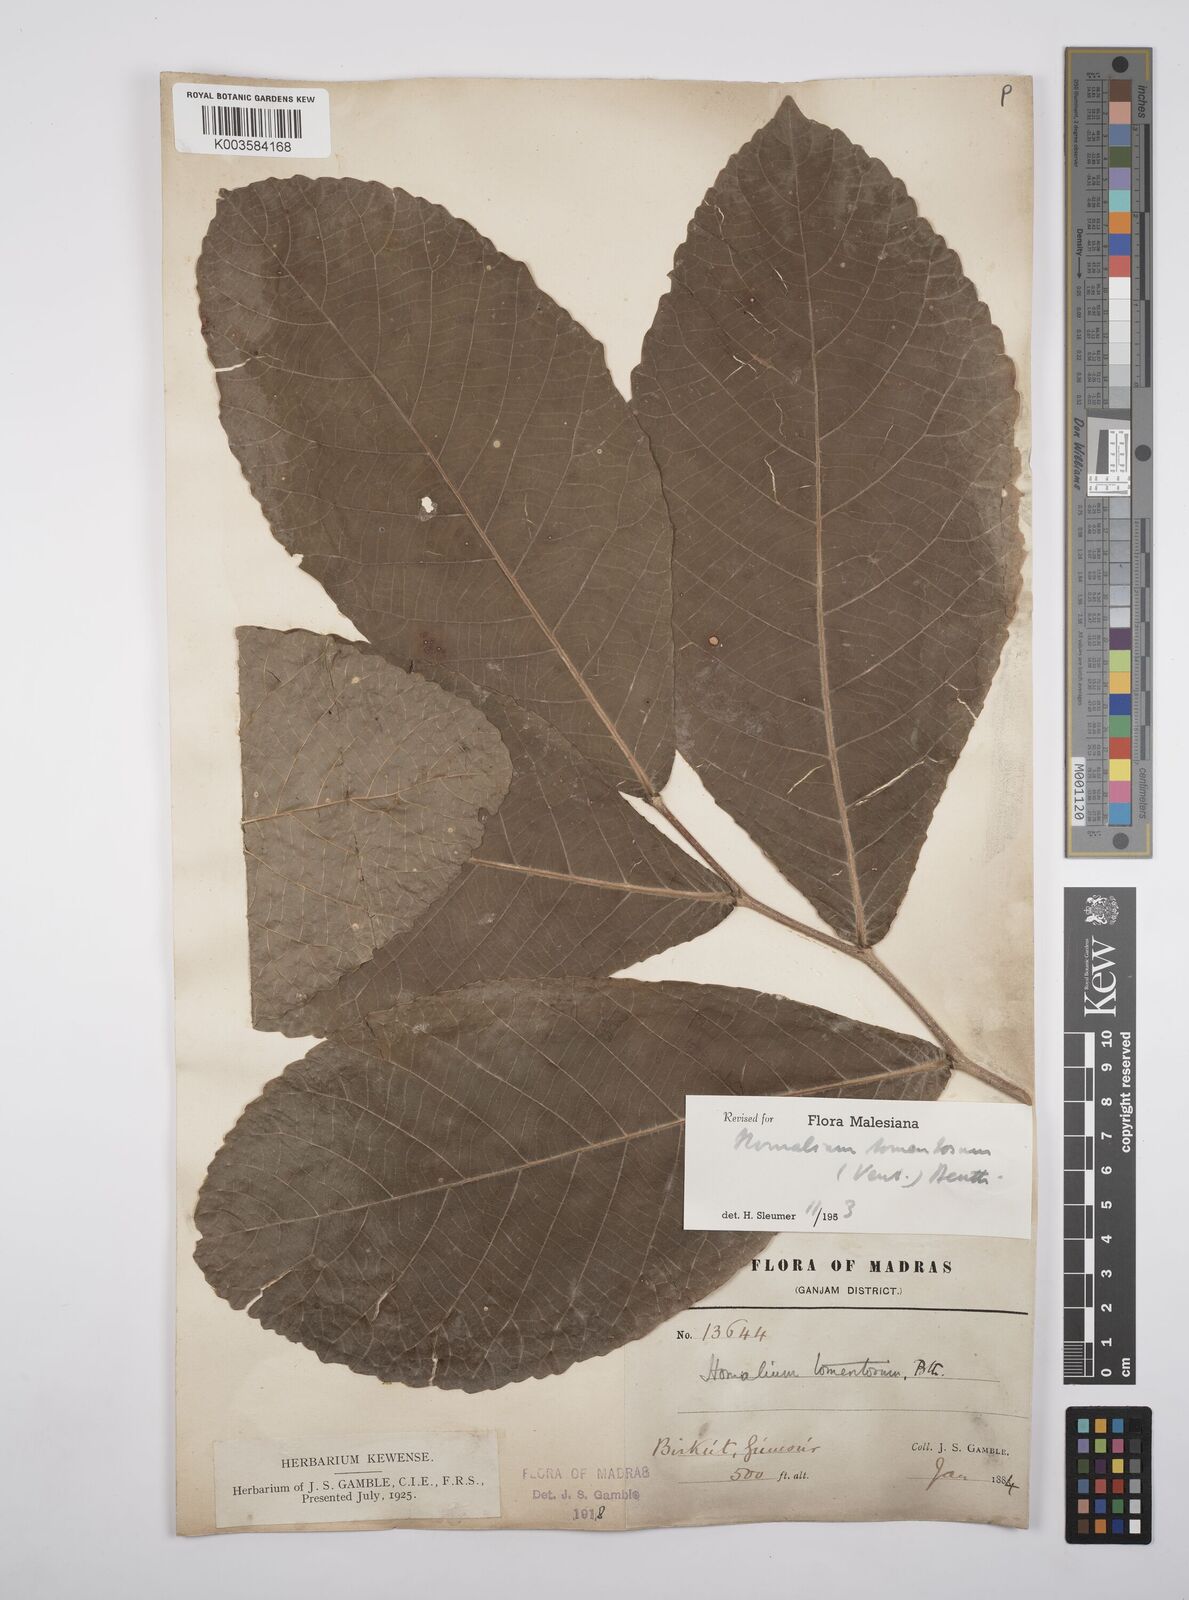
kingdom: Plantae
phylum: Tracheophyta
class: Magnoliopsida
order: Malpighiales
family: Salicaceae
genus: Homalium
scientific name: Homalium tomentosum
